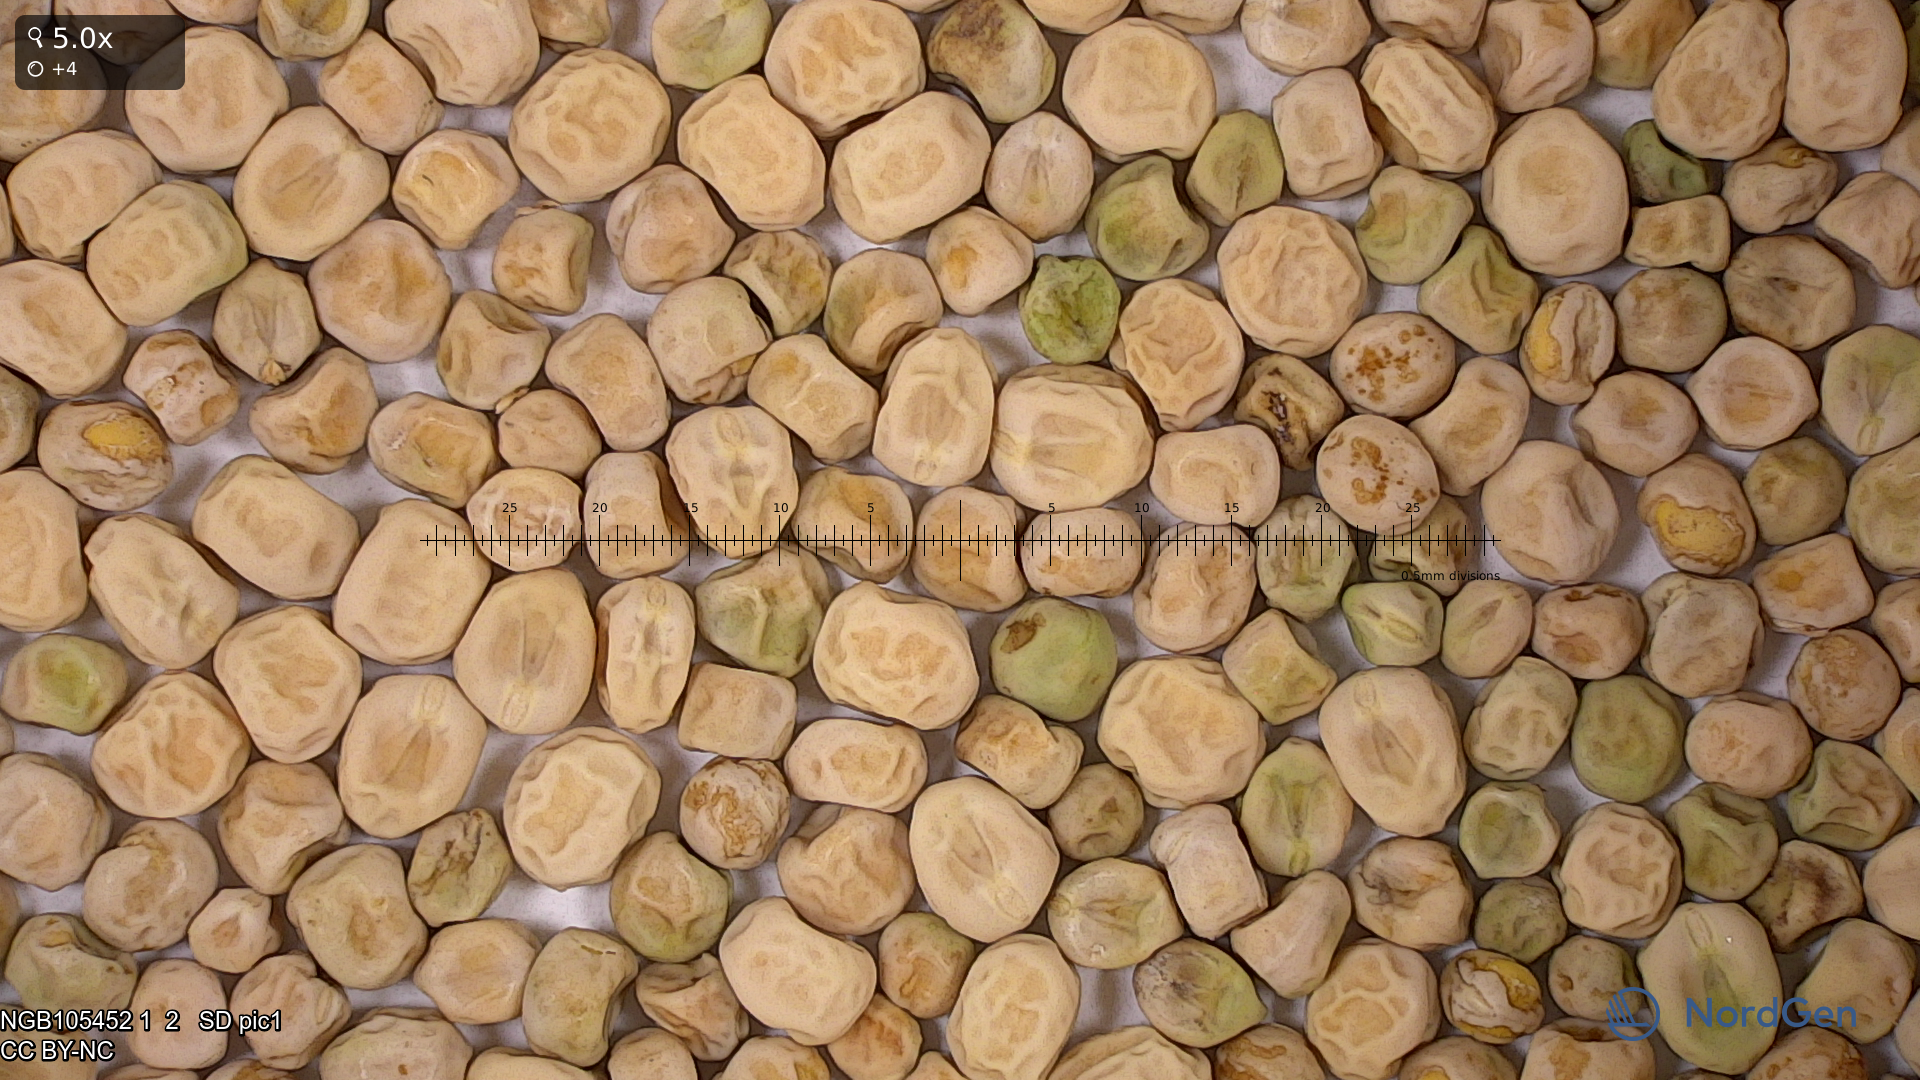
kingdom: Plantae
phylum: Tracheophyta
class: Magnoliopsida
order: Fabales
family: Fabaceae
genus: Lathyrus
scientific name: Lathyrus oleraceus
